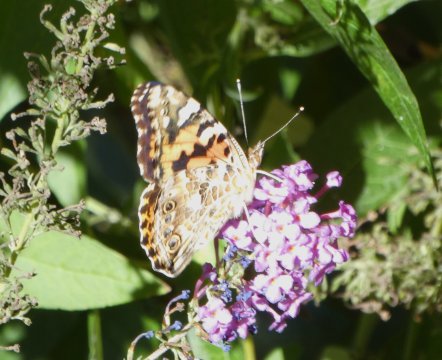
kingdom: Animalia
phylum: Arthropoda
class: Insecta
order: Lepidoptera
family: Nymphalidae
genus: Vanessa
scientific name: Vanessa cardui
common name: Painted Lady
